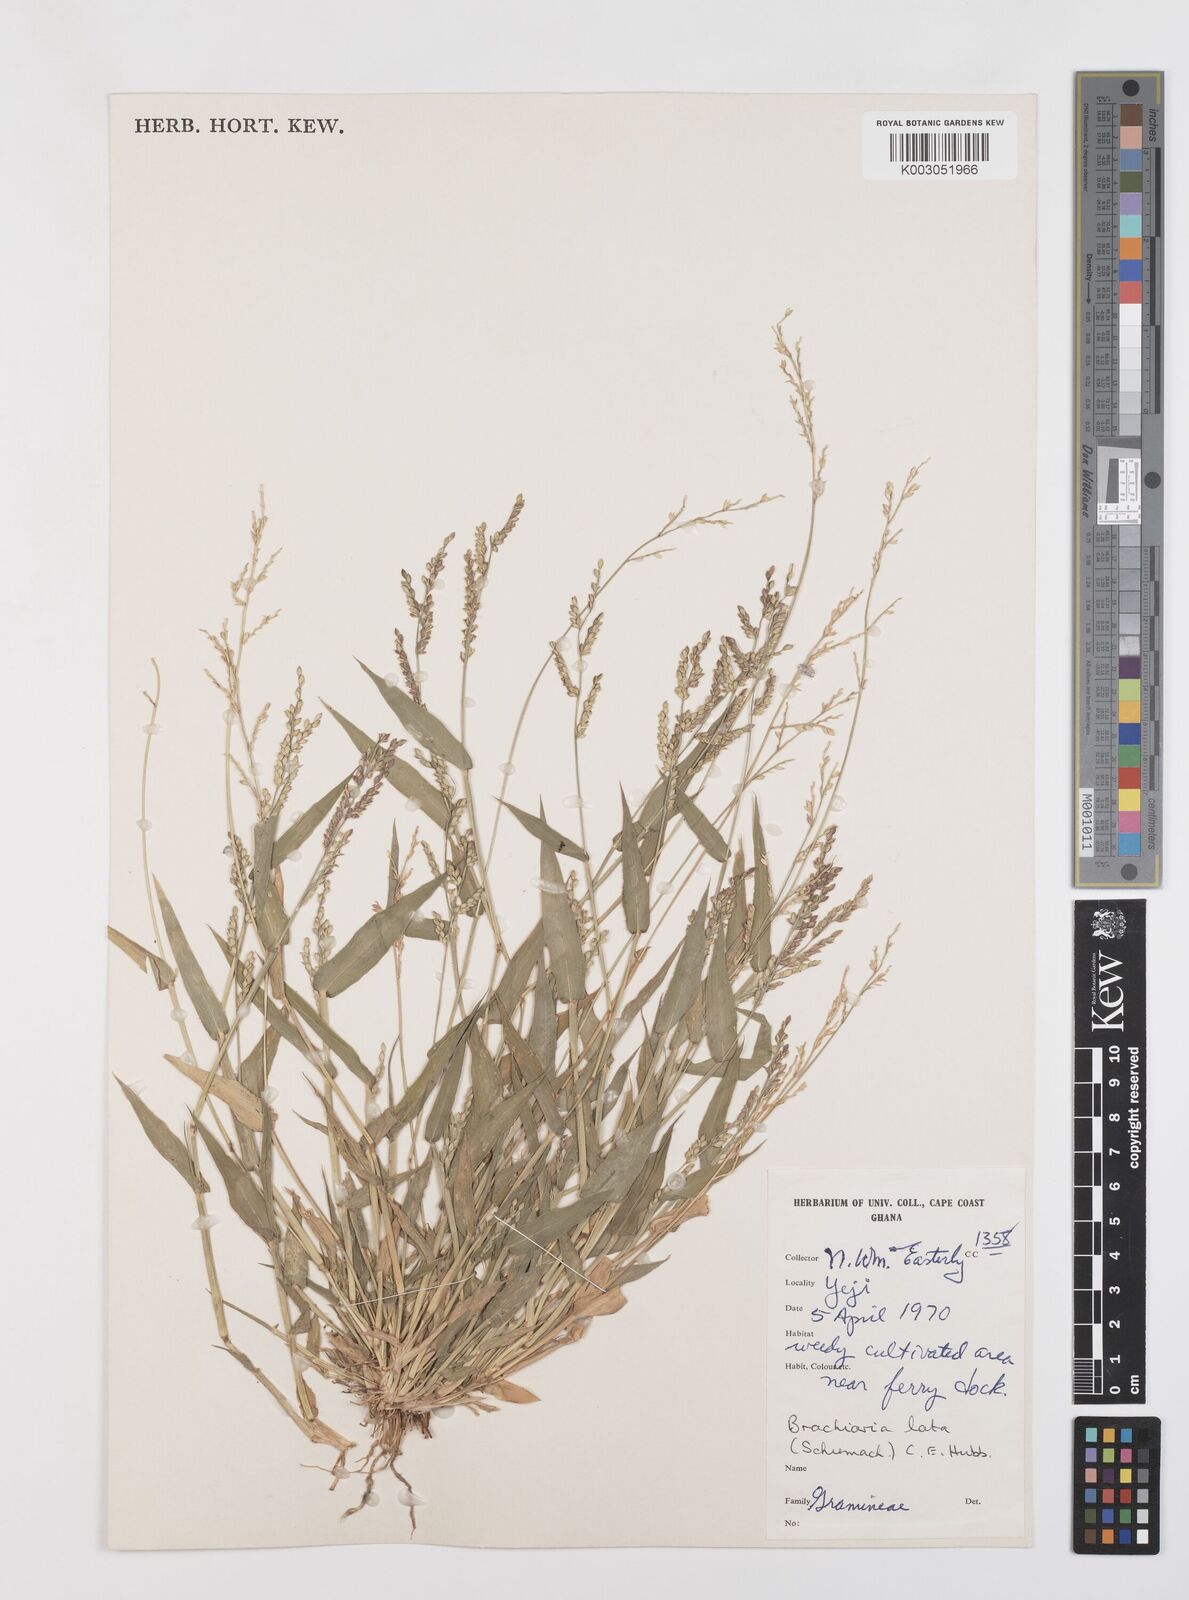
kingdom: Plantae
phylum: Tracheophyta
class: Liliopsida
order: Poales
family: Poaceae
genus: Urochloa
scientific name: Urochloa lata
